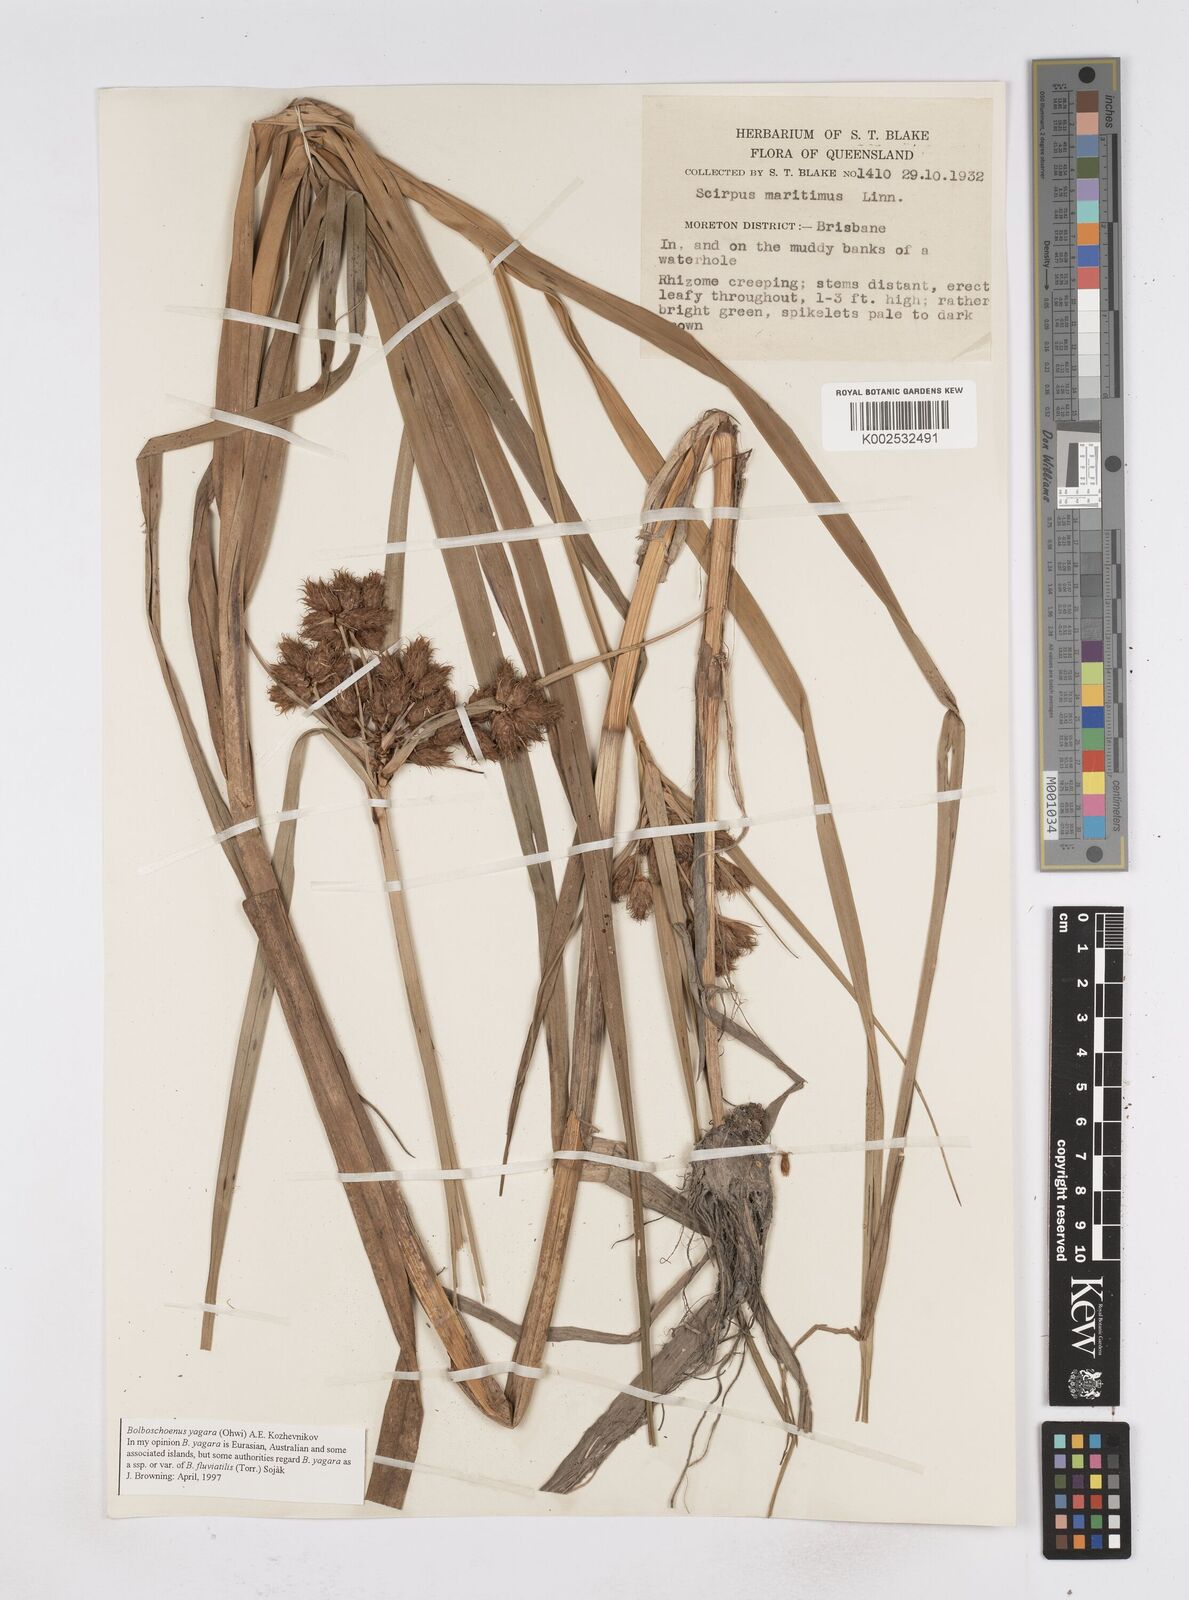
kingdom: Plantae
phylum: Tracheophyta
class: Liliopsida
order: Poales
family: Cyperaceae
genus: Bolboschoenus
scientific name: Bolboschoenus maritimus
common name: Sea club-rush
